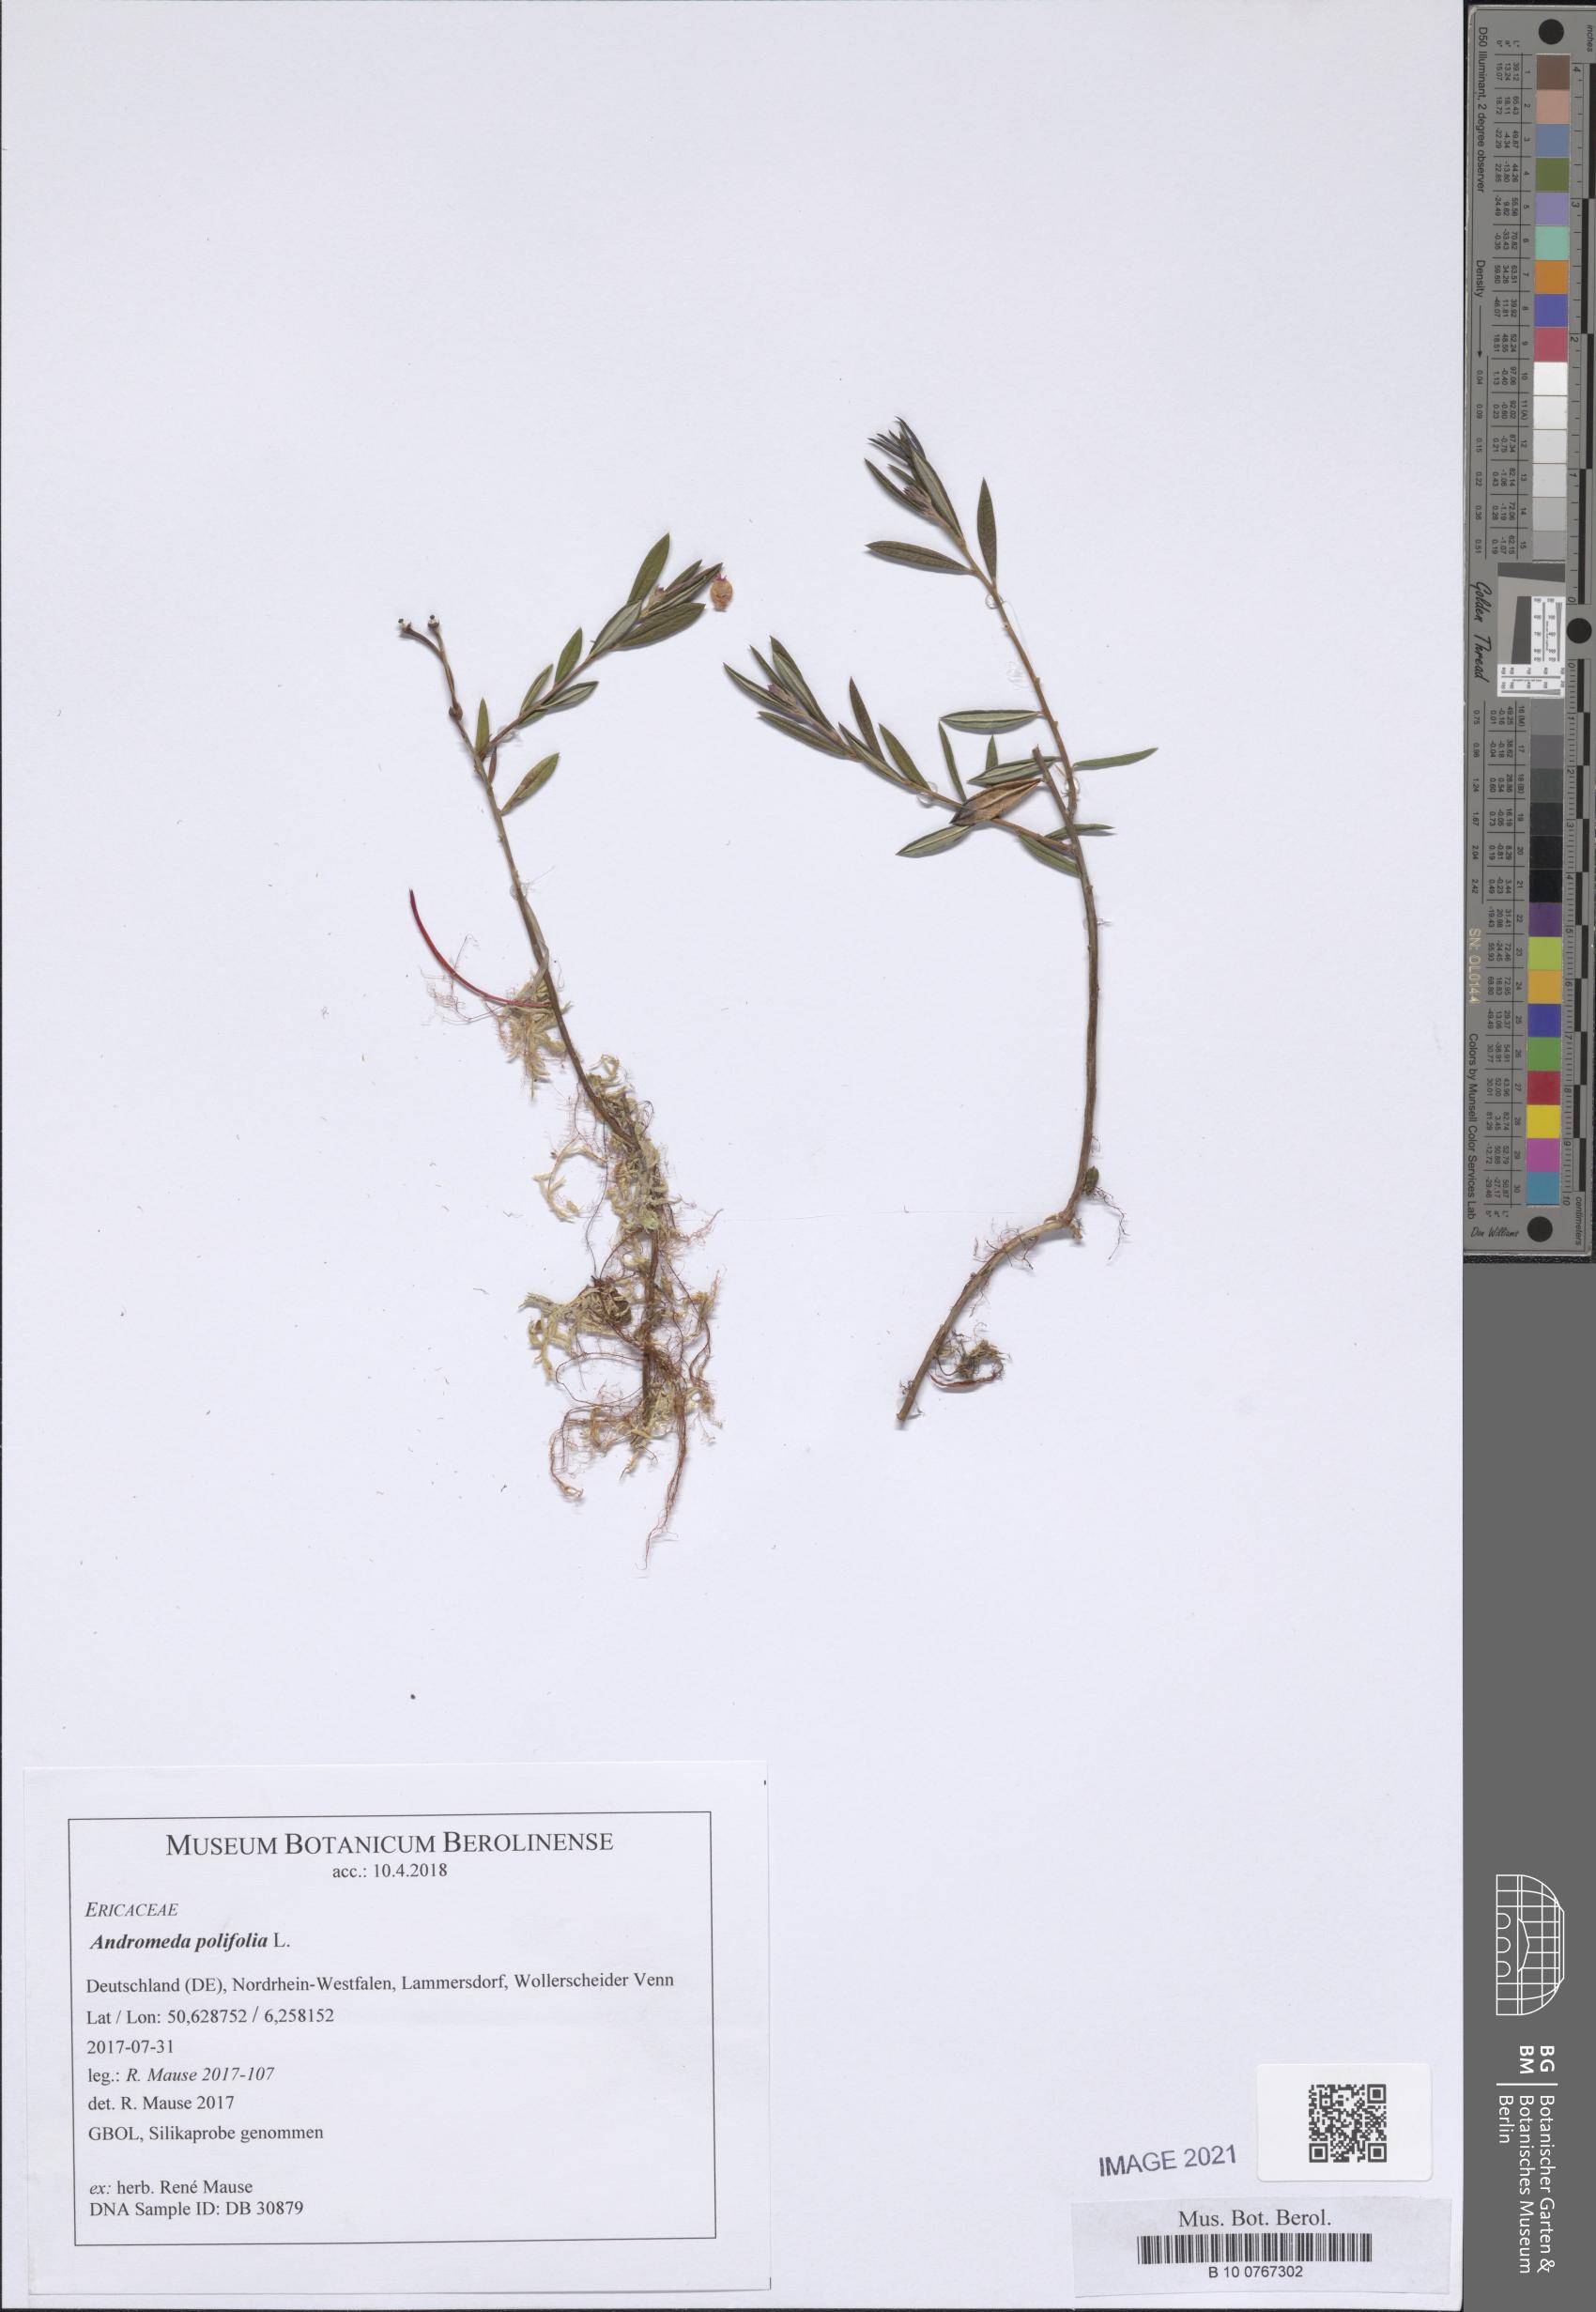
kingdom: Plantae
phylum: Tracheophyta
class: Magnoliopsida
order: Ericales
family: Ericaceae
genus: Andromeda
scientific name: Andromeda polifolia
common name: Bog-rosemary
